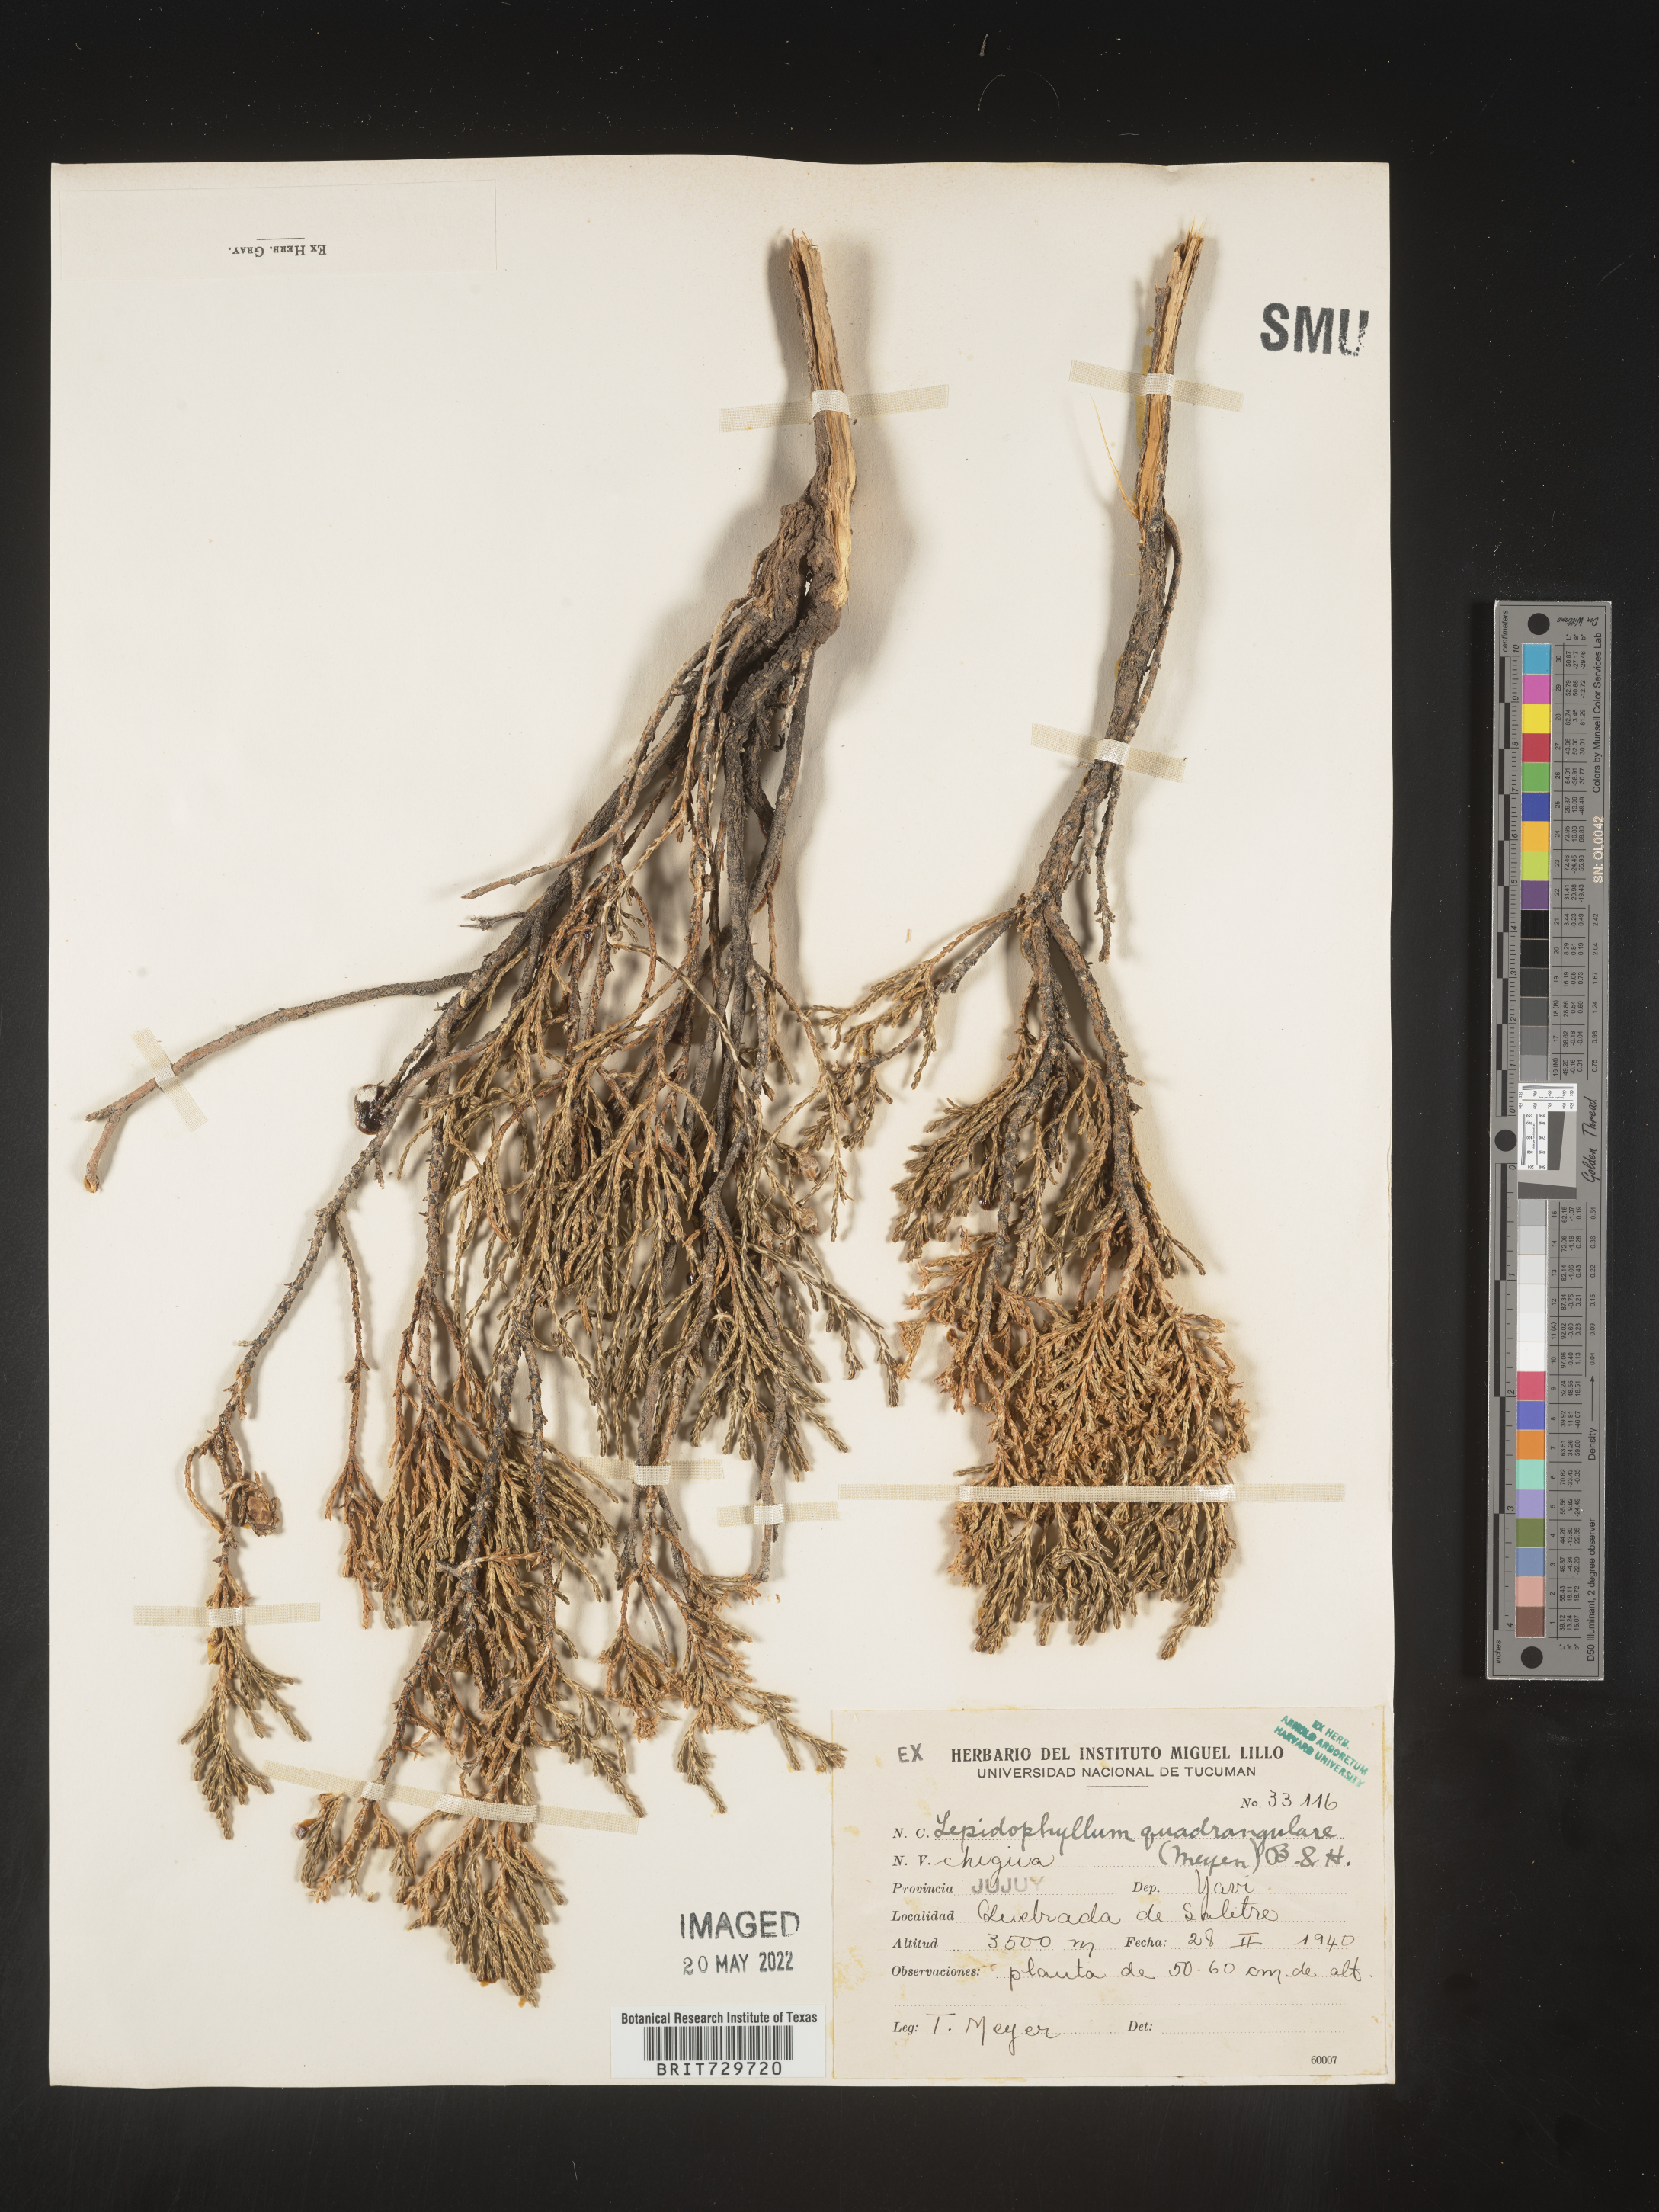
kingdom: Plantae
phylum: Tracheophyta
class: Magnoliopsida
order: Asterales
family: Asteraceae
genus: Lepidophyllum
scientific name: Lepidophyllum
